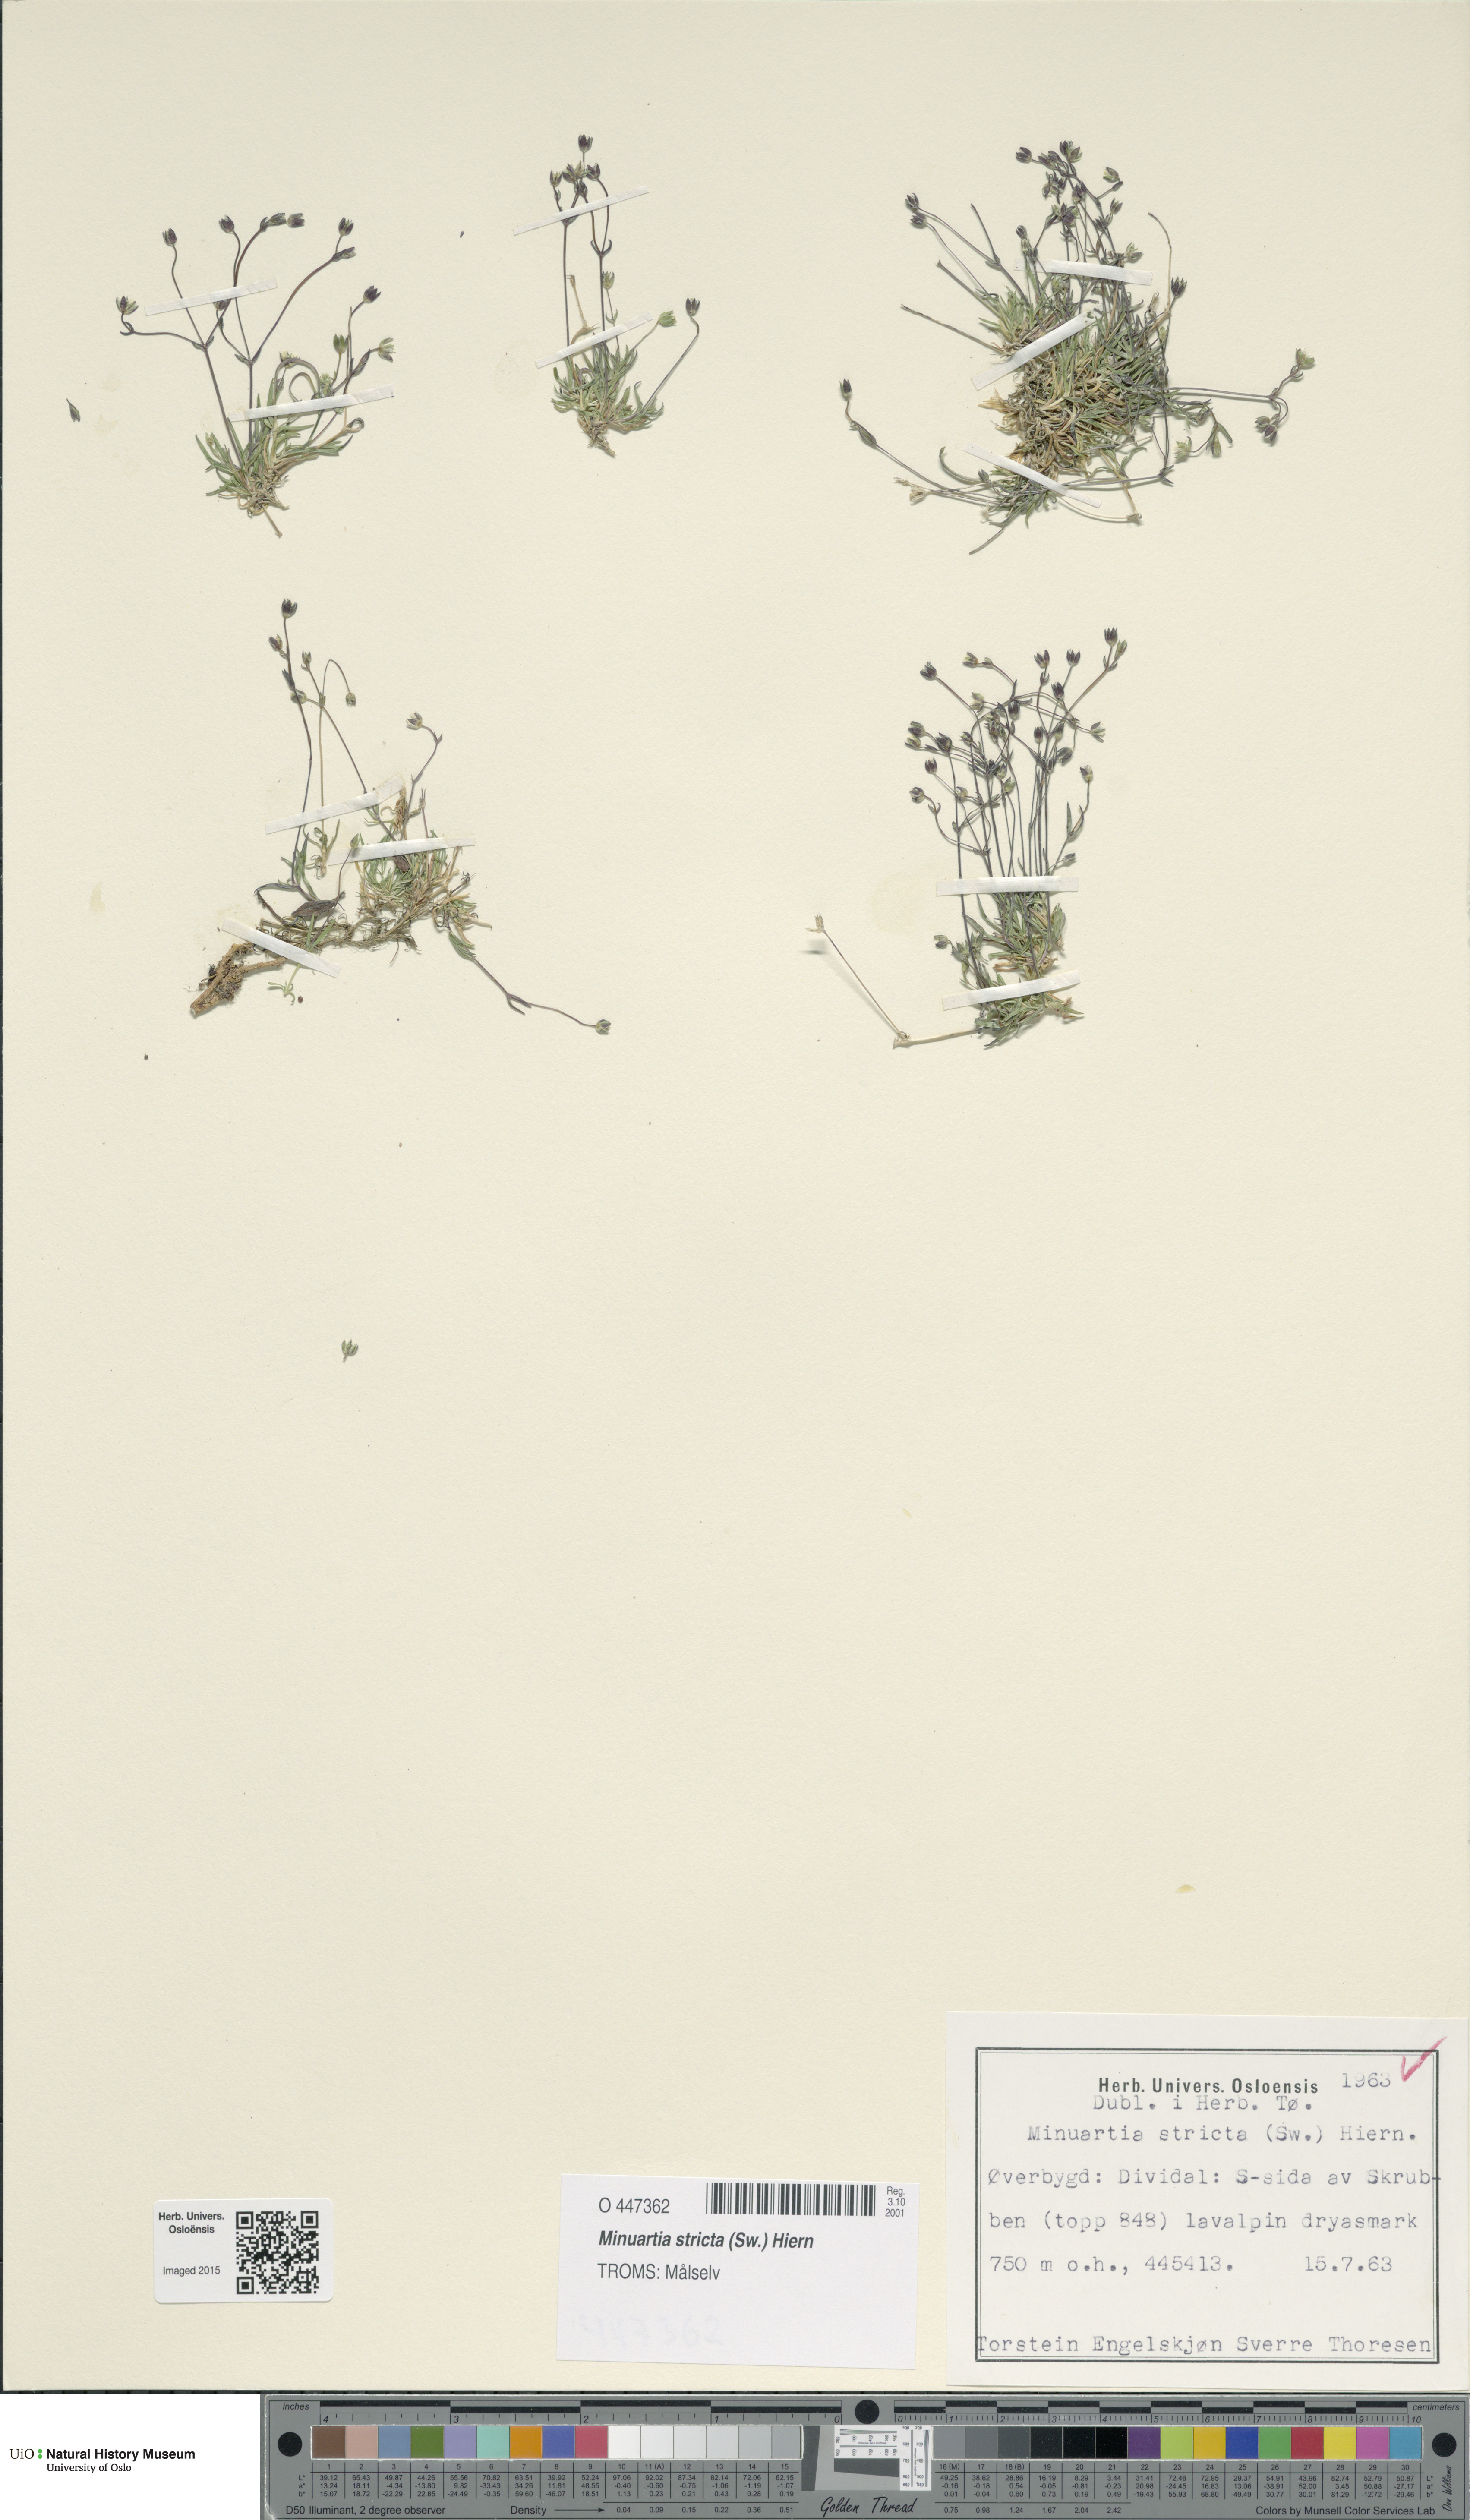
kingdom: Plantae
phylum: Tracheophyta
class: Magnoliopsida
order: Caryophyllales
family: Caryophyllaceae
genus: Sabulina
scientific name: Sabulina stricta
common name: Bog sandwort
